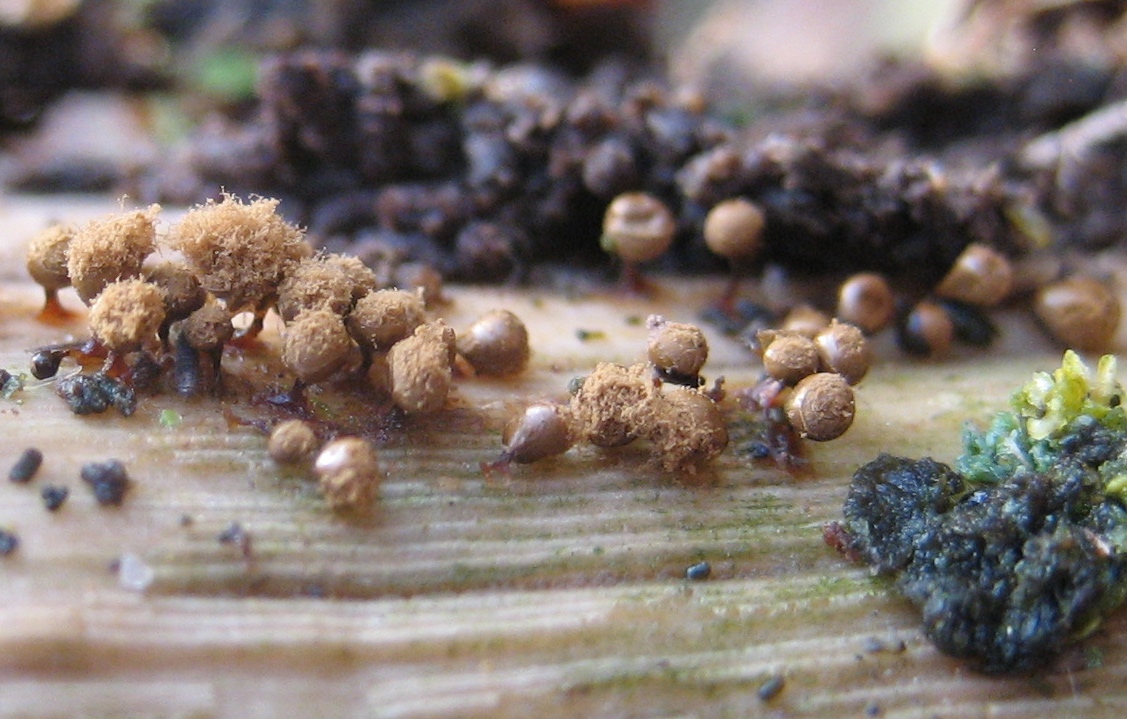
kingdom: Protozoa
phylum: Mycetozoa
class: Myxomycetes
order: Trichiales
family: Trichiaceae
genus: Trichia
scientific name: Trichia crateriformis
